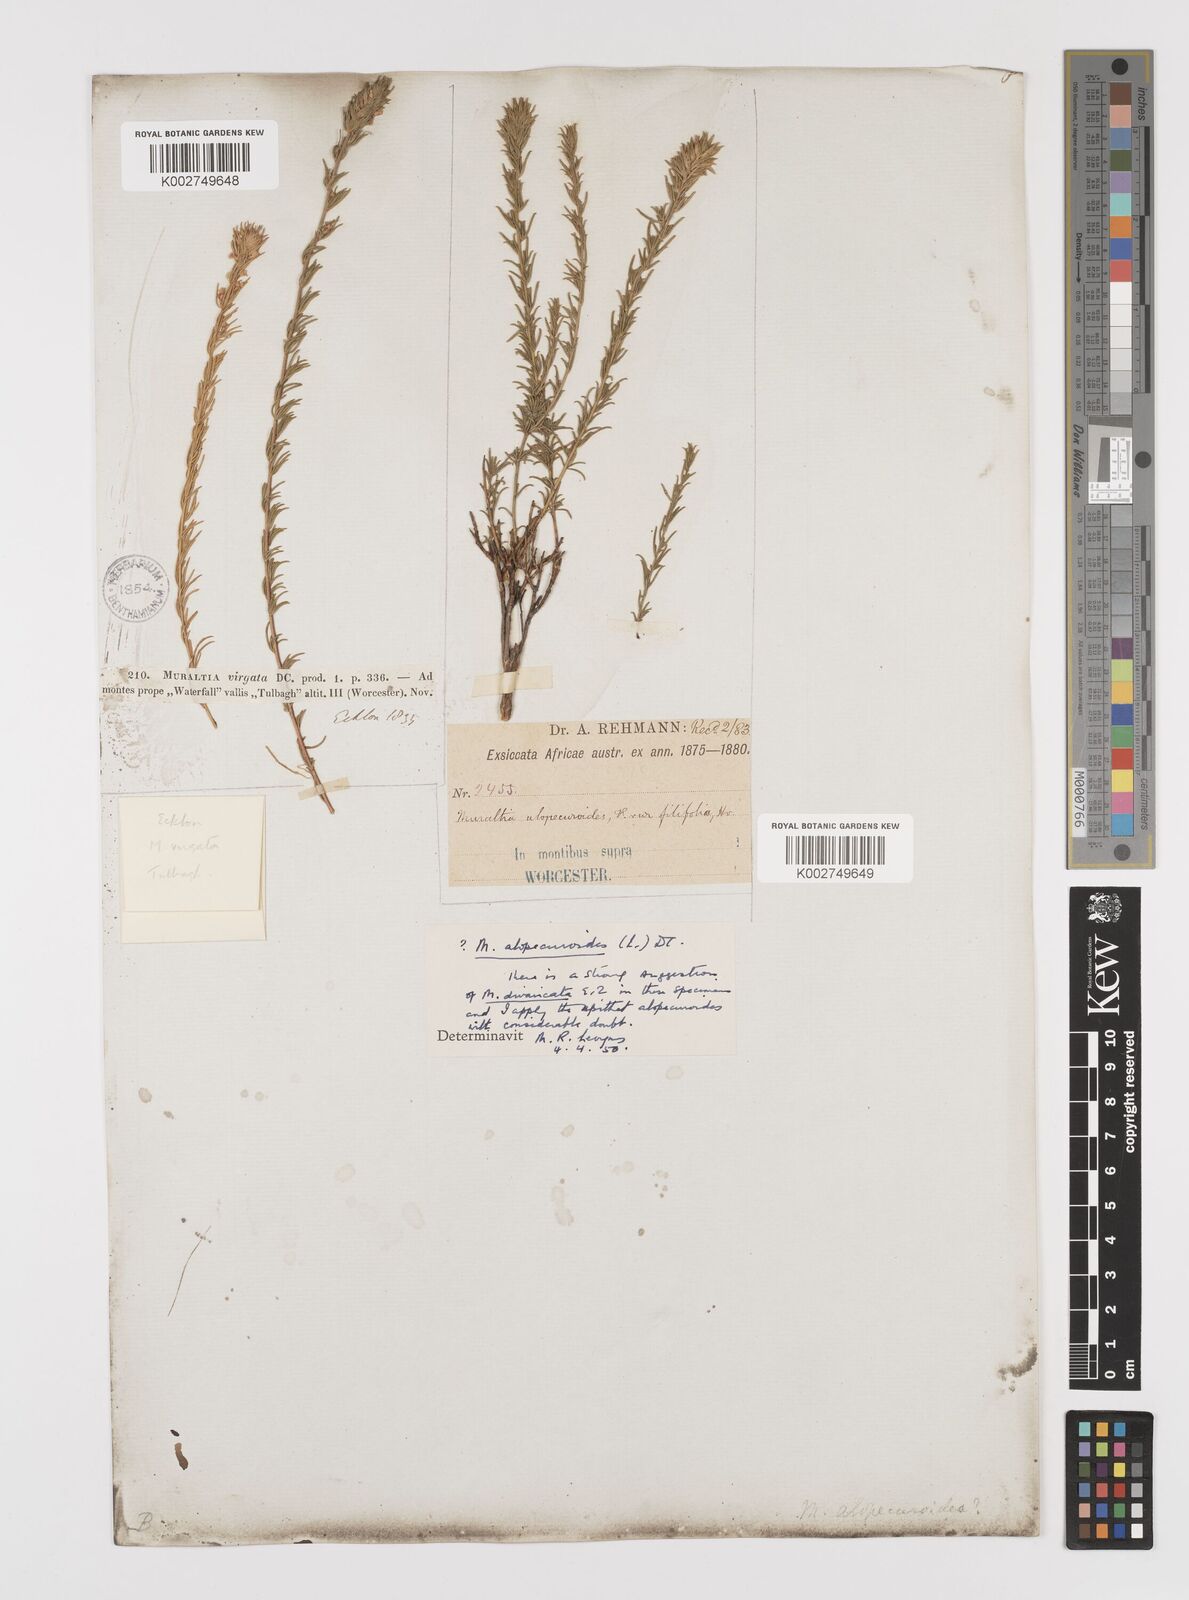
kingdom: Plantae
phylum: Tracheophyta
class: Magnoliopsida
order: Fabales
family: Polygalaceae
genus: Muraltia
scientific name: Muraltia alopecuroides
